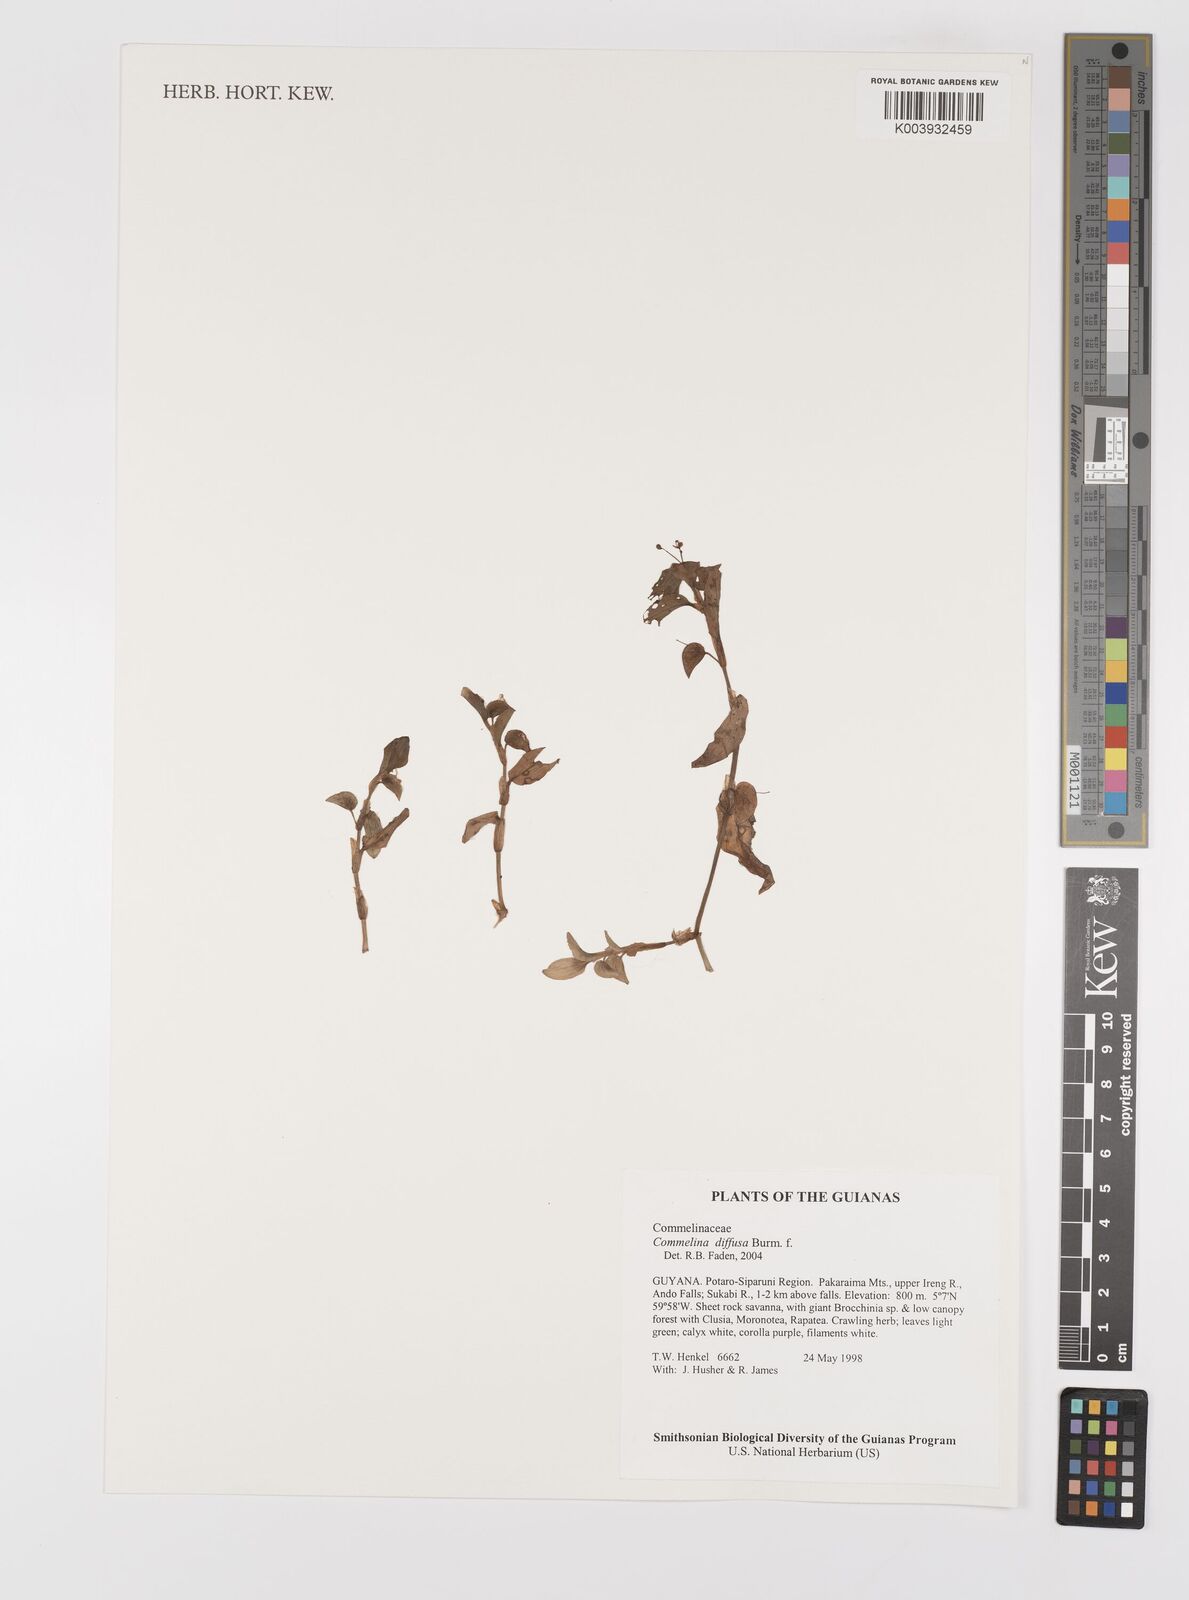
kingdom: Plantae
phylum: Tracheophyta
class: Liliopsida
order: Commelinales
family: Commelinaceae
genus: Commelina
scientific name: Commelina
